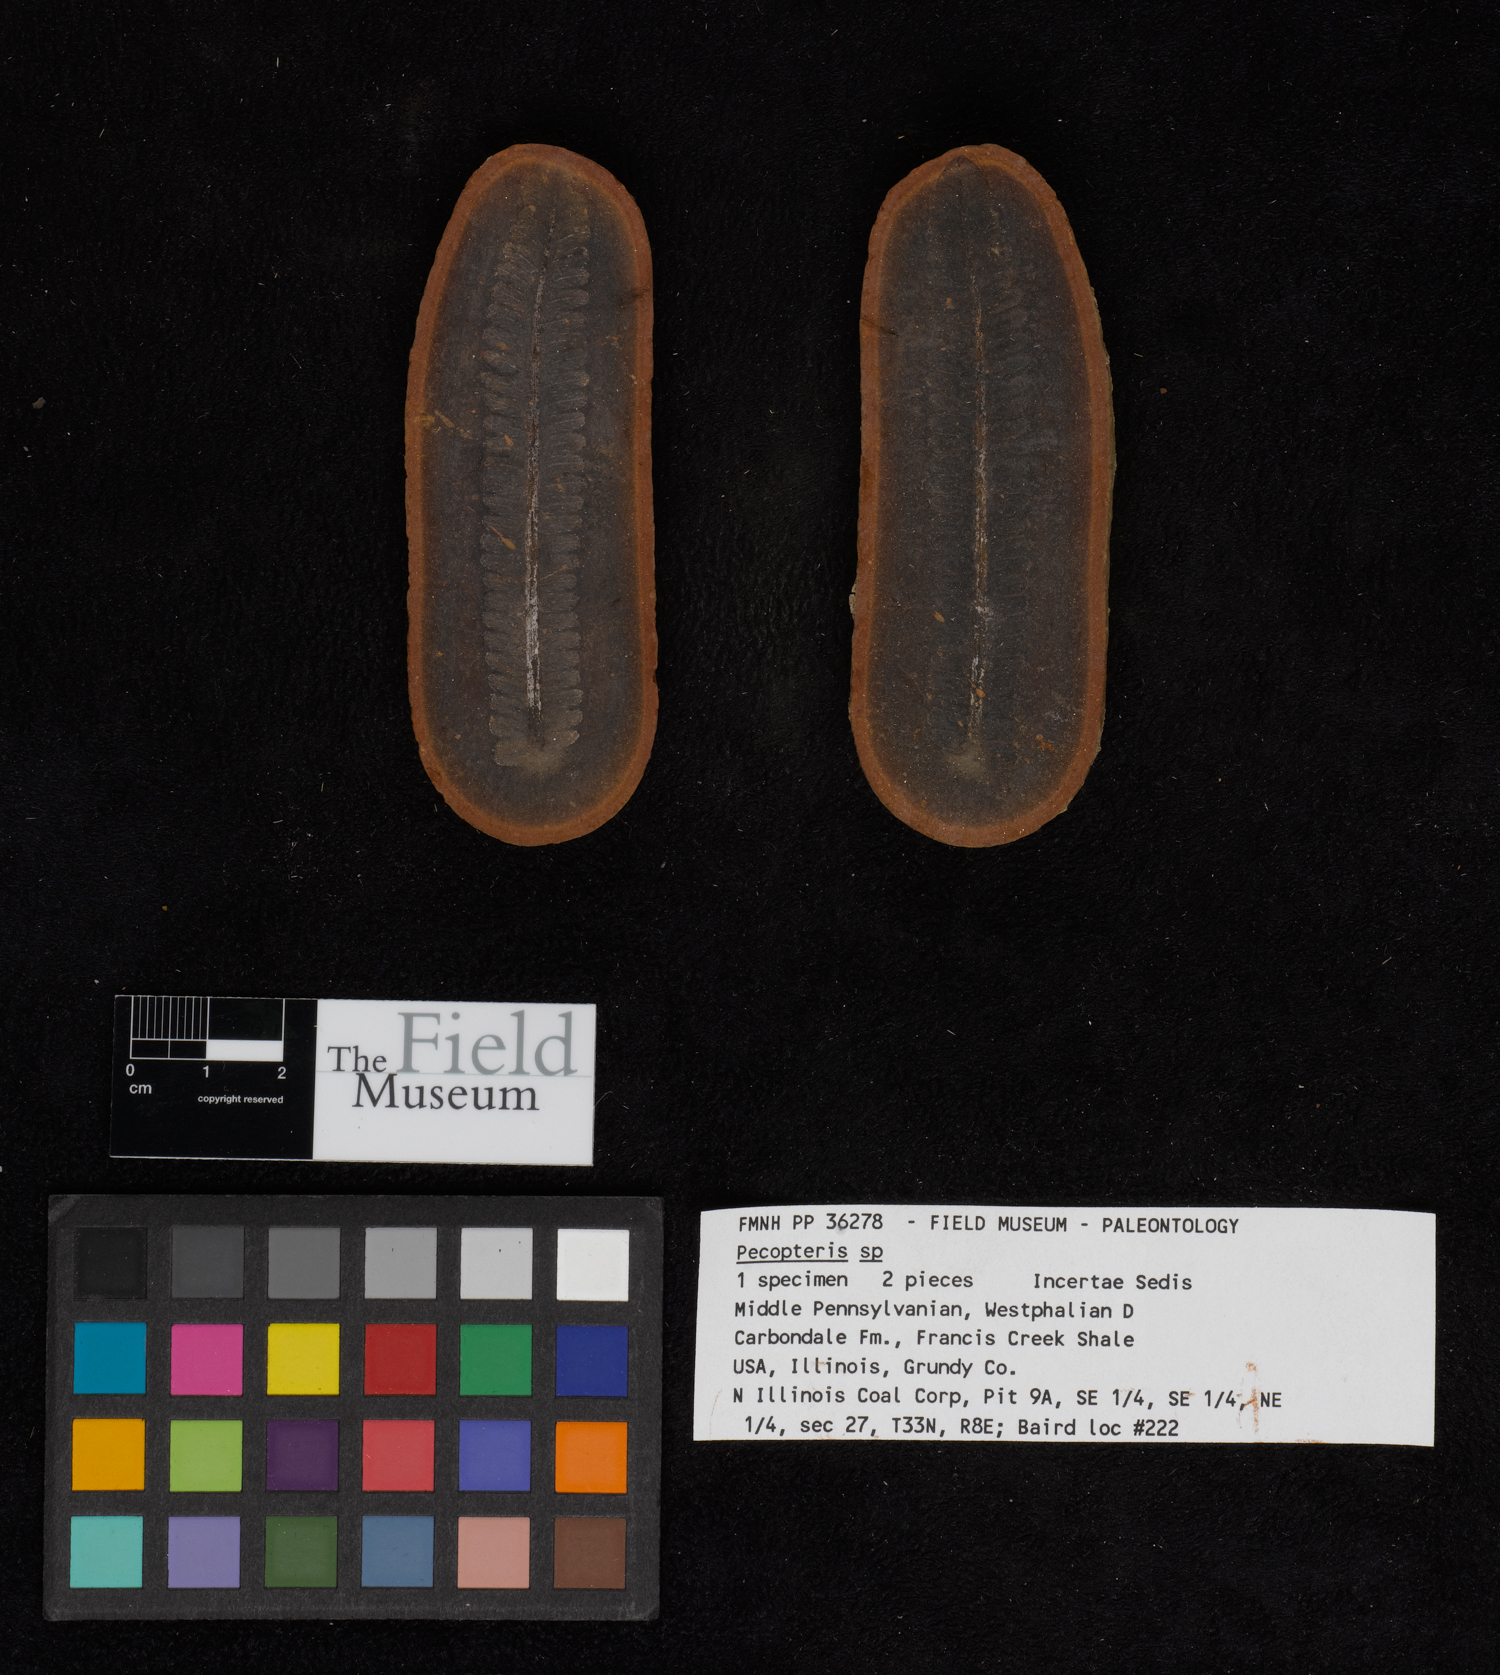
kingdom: Plantae
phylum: Tracheophyta
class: Polypodiopsida
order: Marattiales
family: Asterothecaceae
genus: Pecopteris
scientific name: Pecopteris
